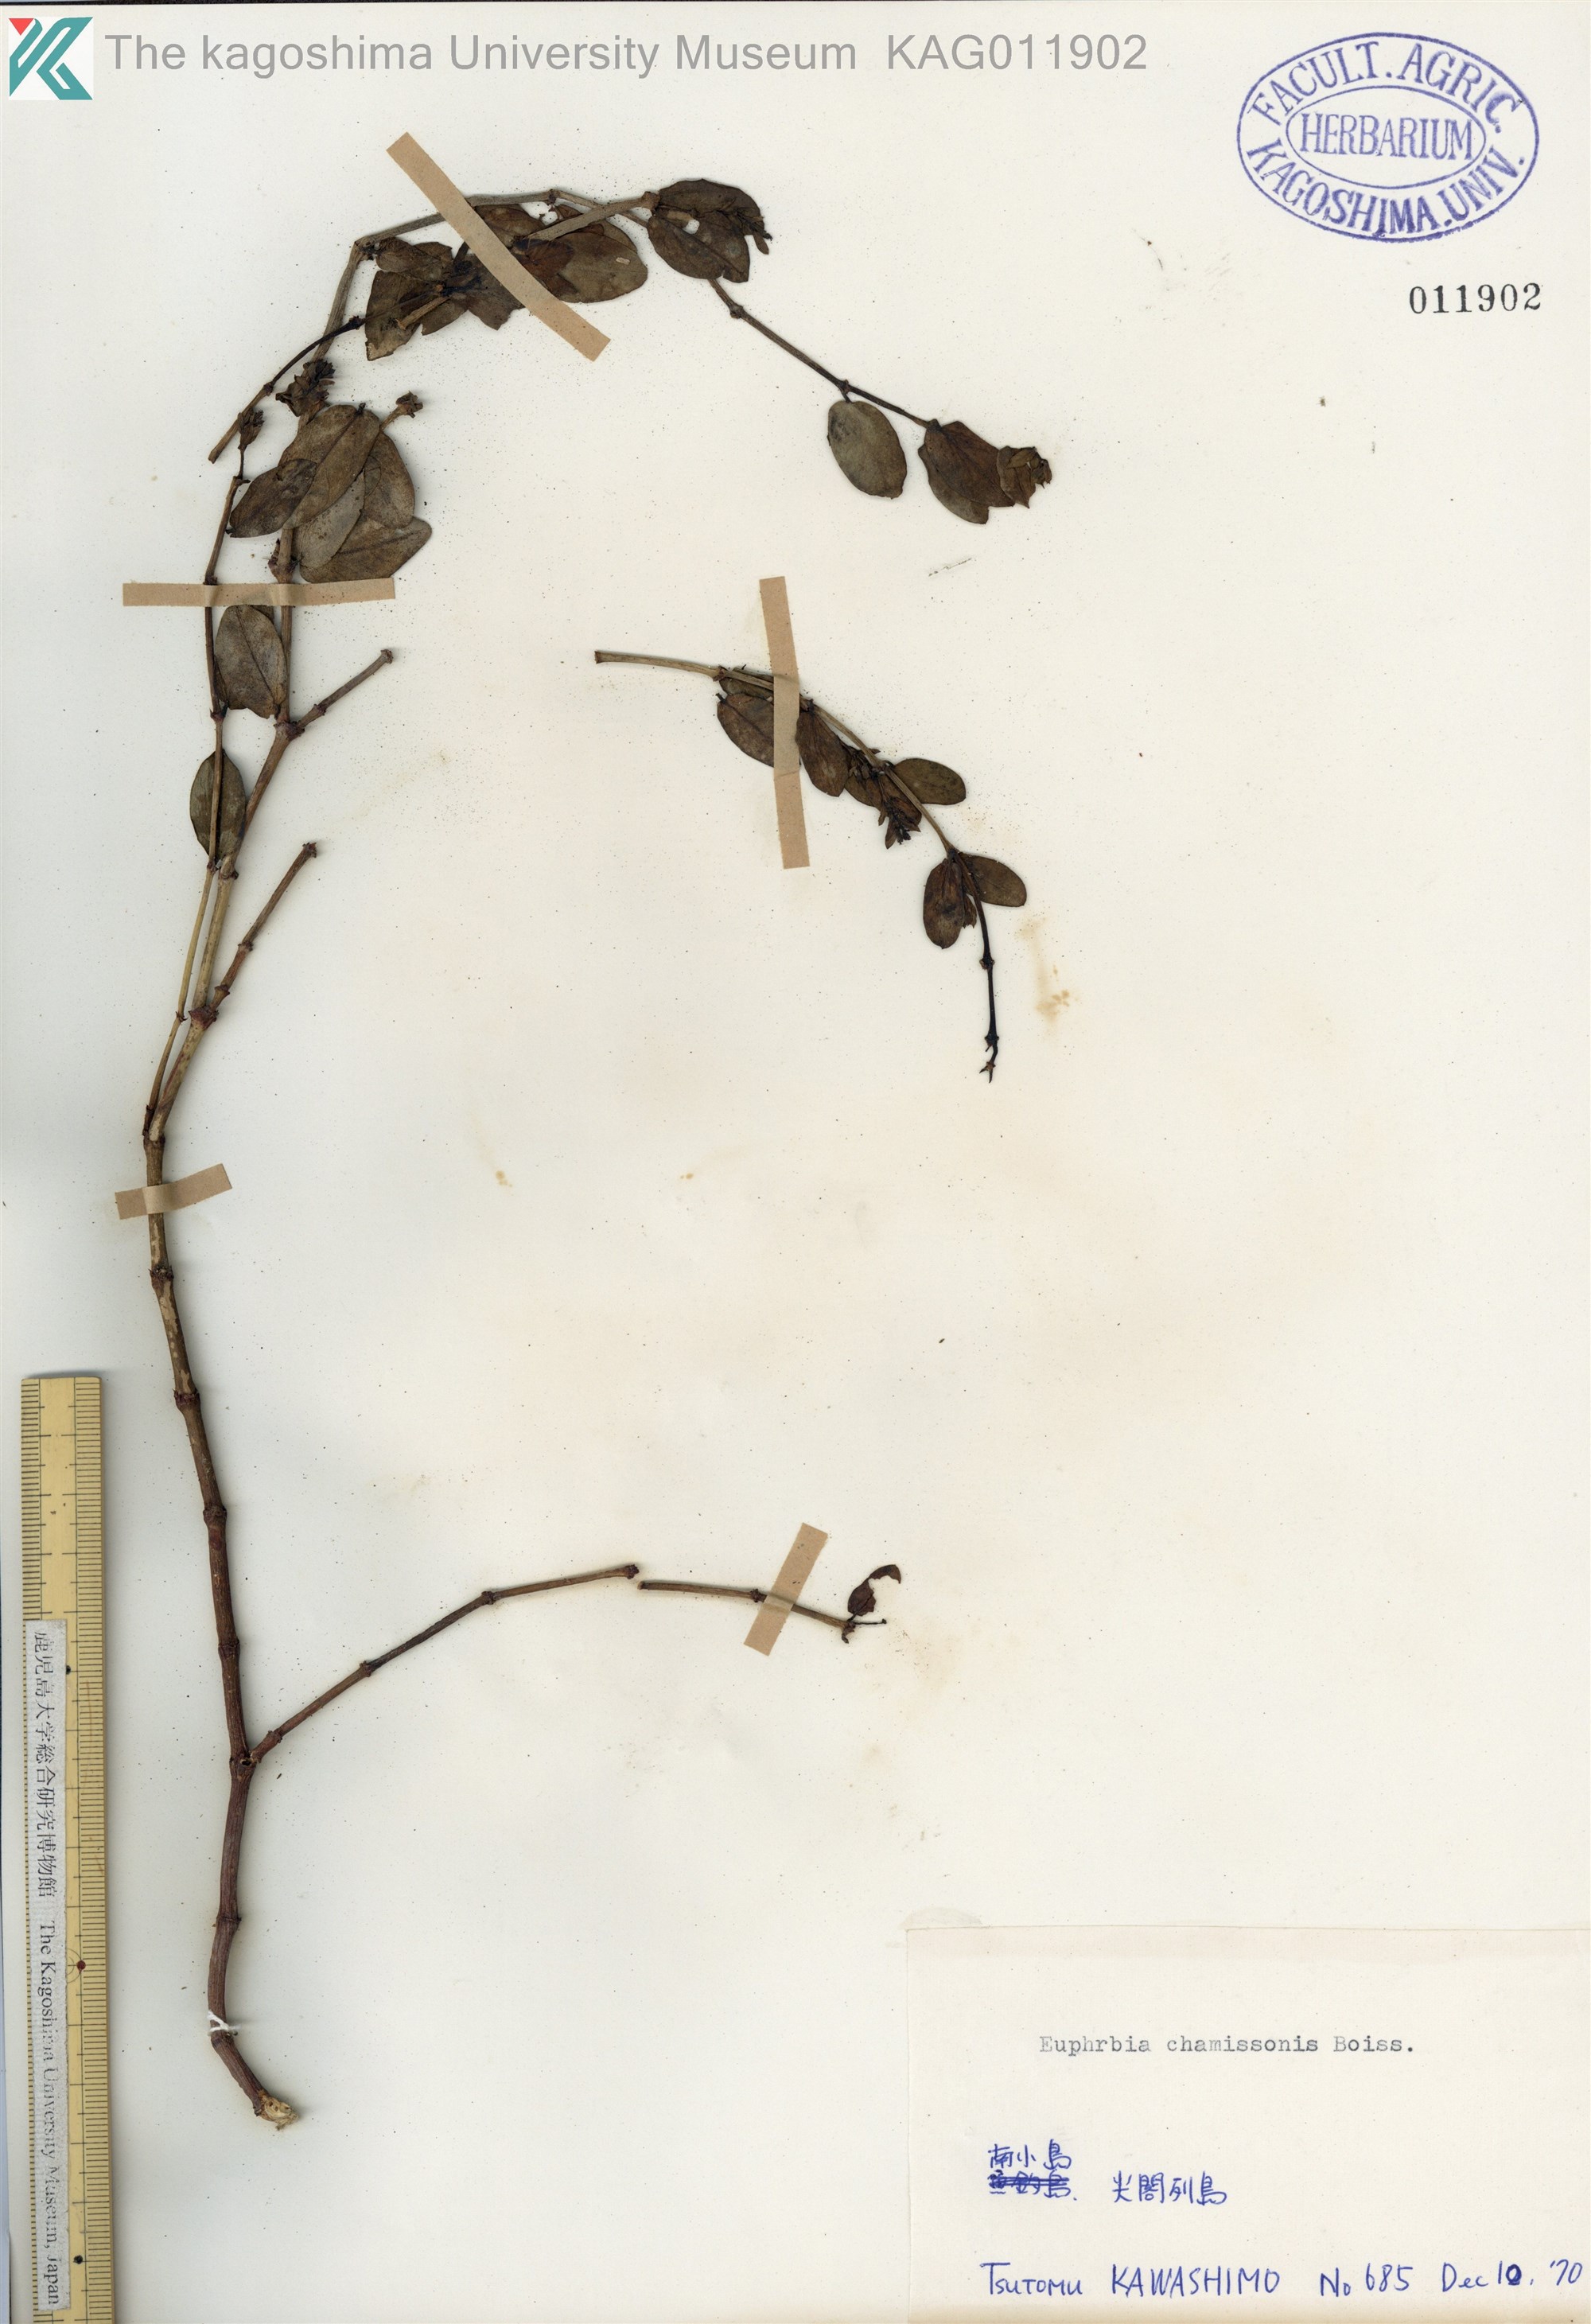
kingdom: Plantae
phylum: Tracheophyta
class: Magnoliopsida
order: Malpighiales
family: Euphorbiaceae
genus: Euphorbia
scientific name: Euphorbia chamissonis
